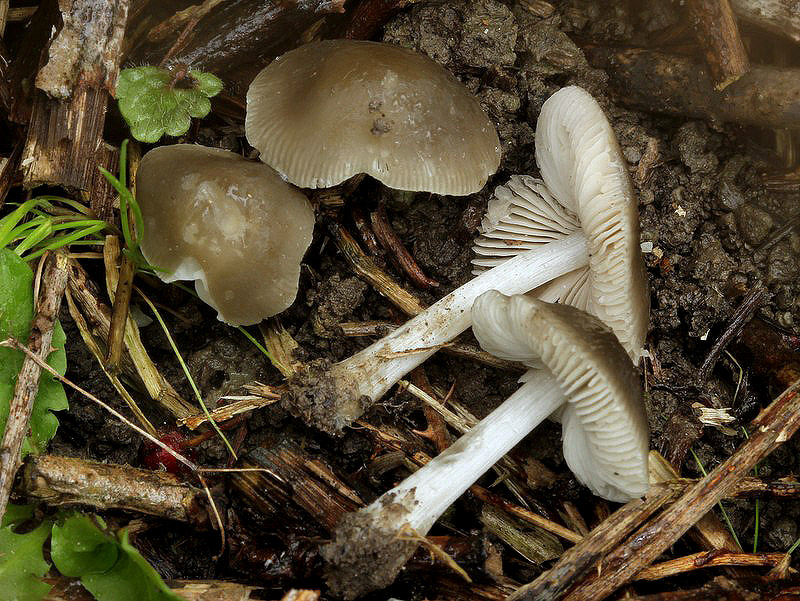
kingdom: Fungi
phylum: Basidiomycota
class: Agaricomycetes
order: Agaricales
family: Pluteaceae
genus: Pluteus
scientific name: Pluteus cinereofuscus
